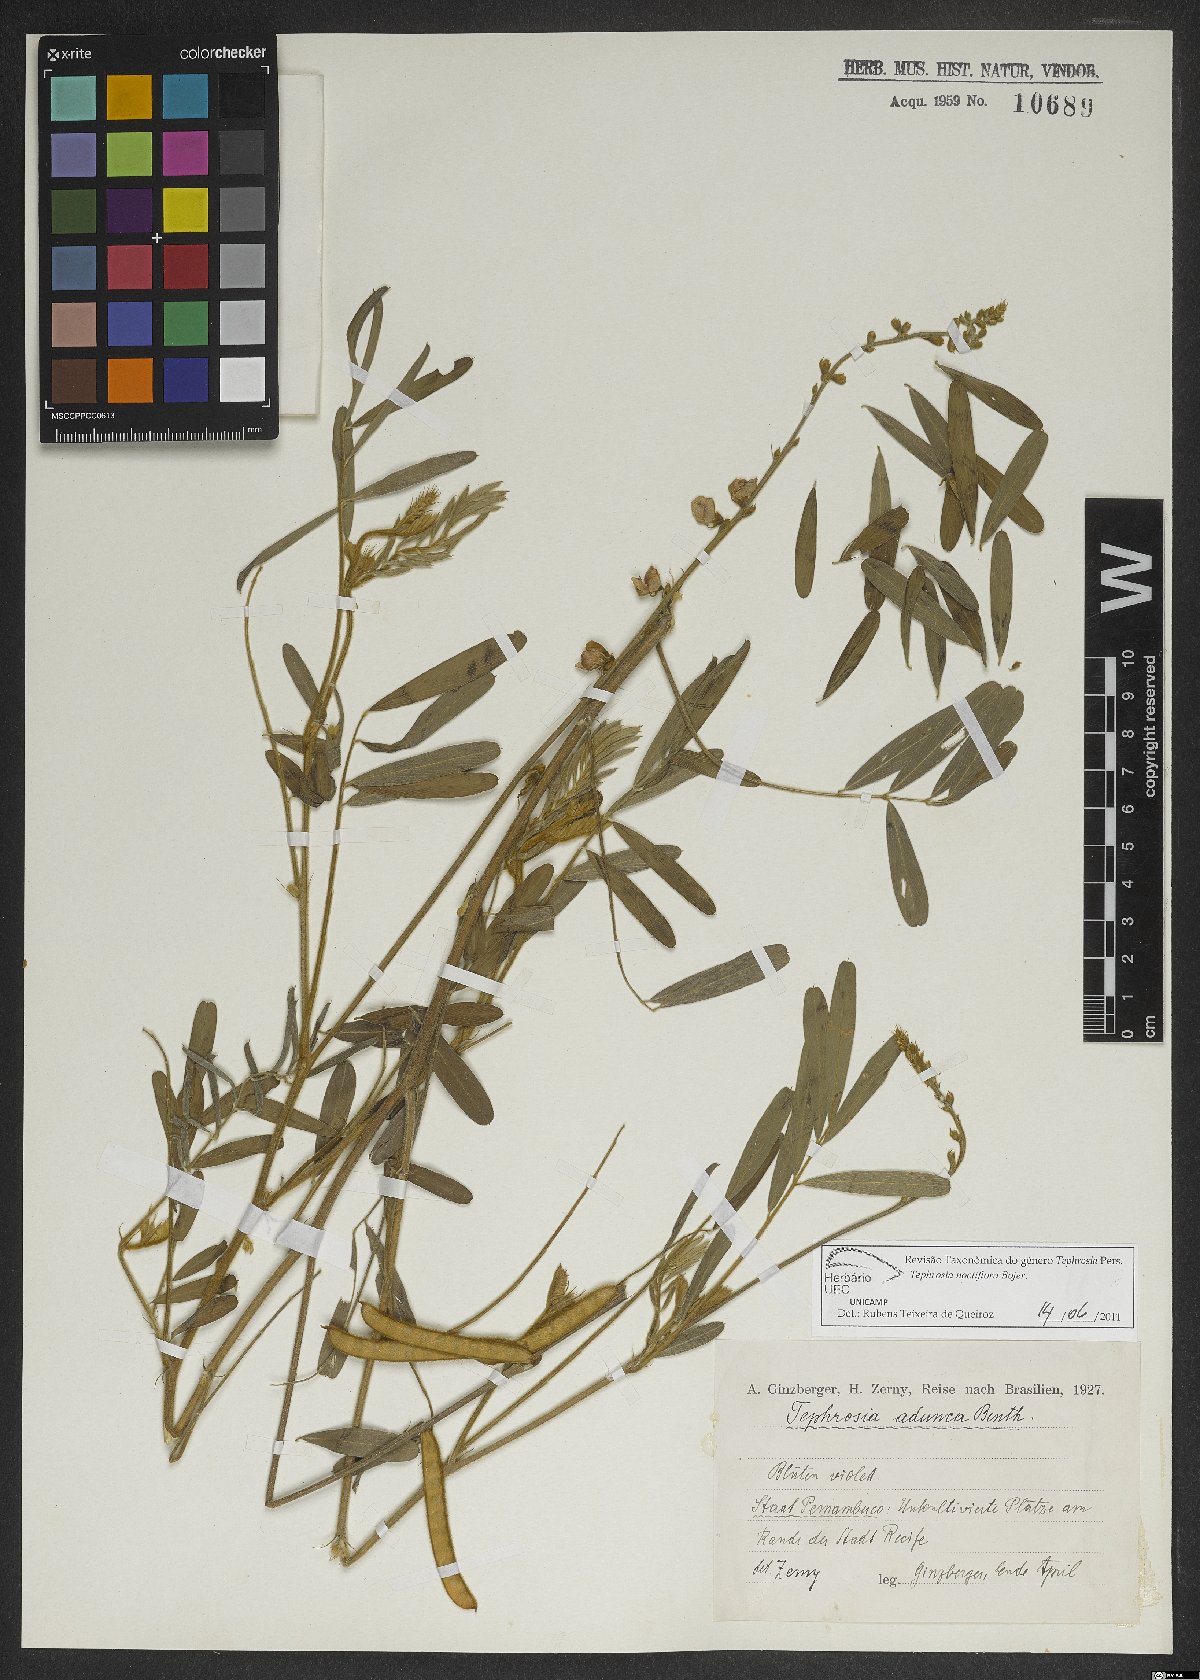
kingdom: Plantae
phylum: Tracheophyta
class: Magnoliopsida
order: Fabales
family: Fabaceae
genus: Tephrosia
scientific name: Tephrosia purpurea
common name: Fishpoison
